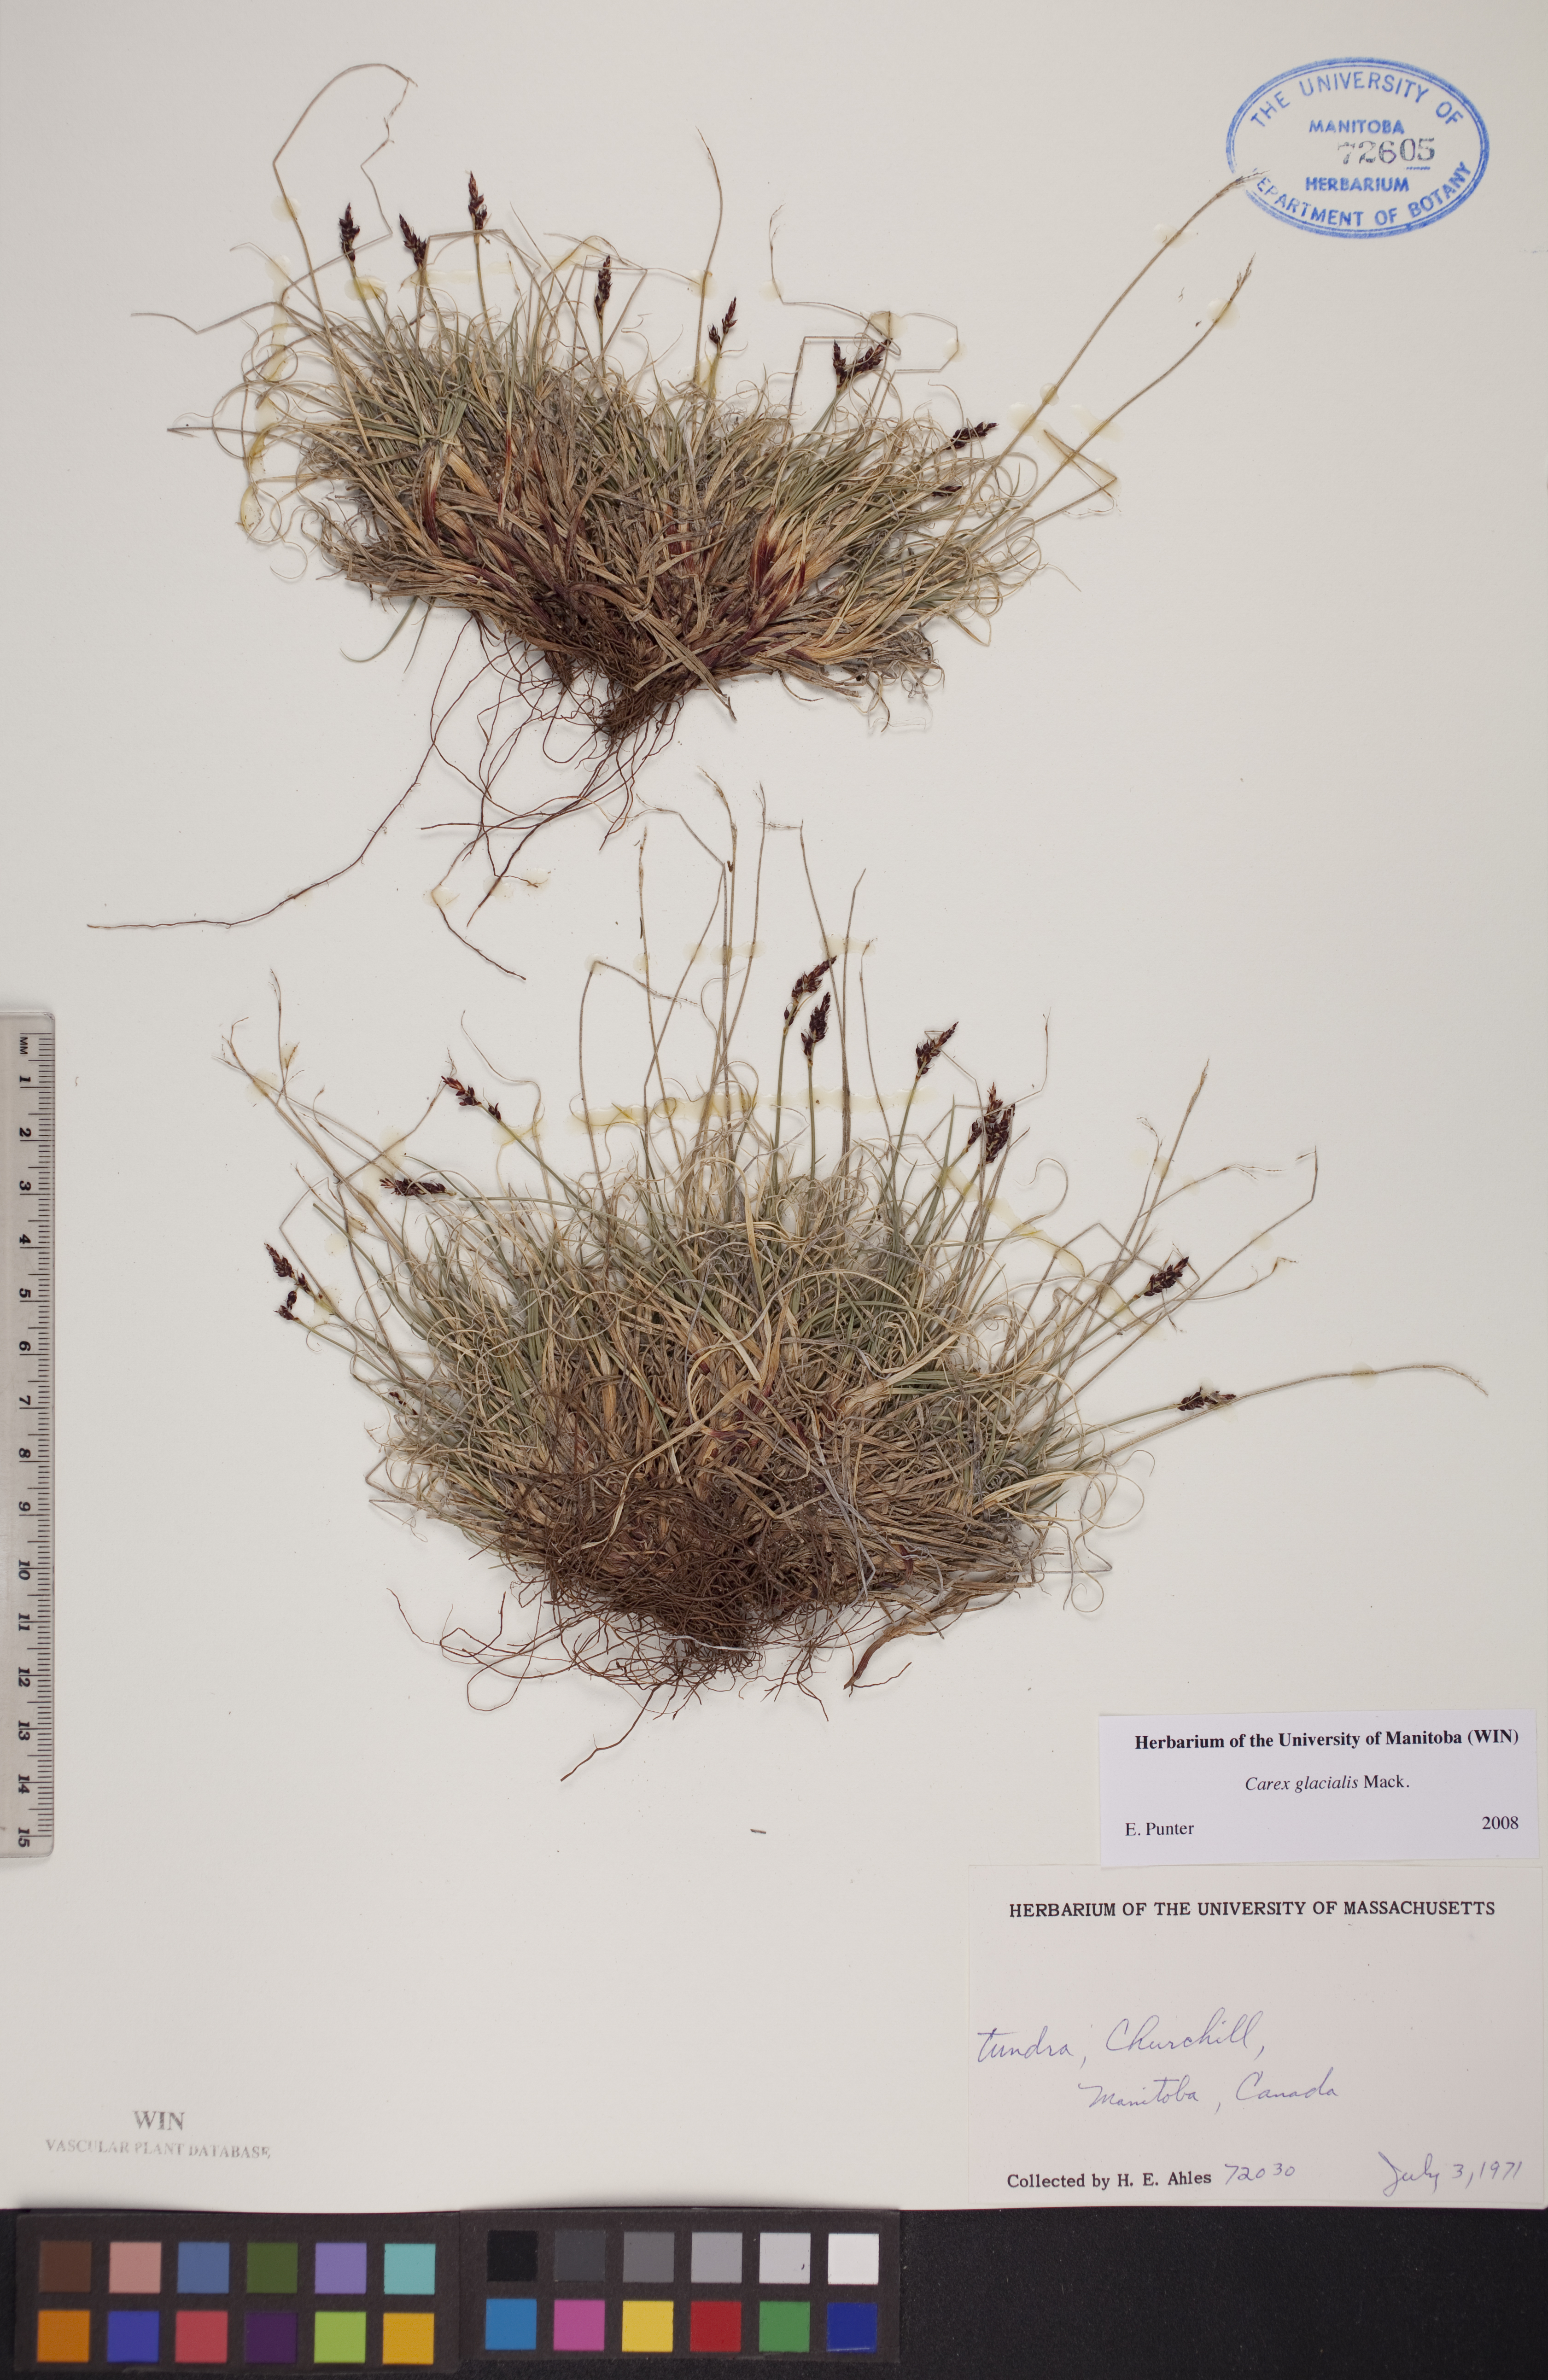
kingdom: Plantae
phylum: Tracheophyta
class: Liliopsida
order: Poales
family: Cyperaceae
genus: Carex
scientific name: Carex glacialis
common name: Newfoundland sedge
